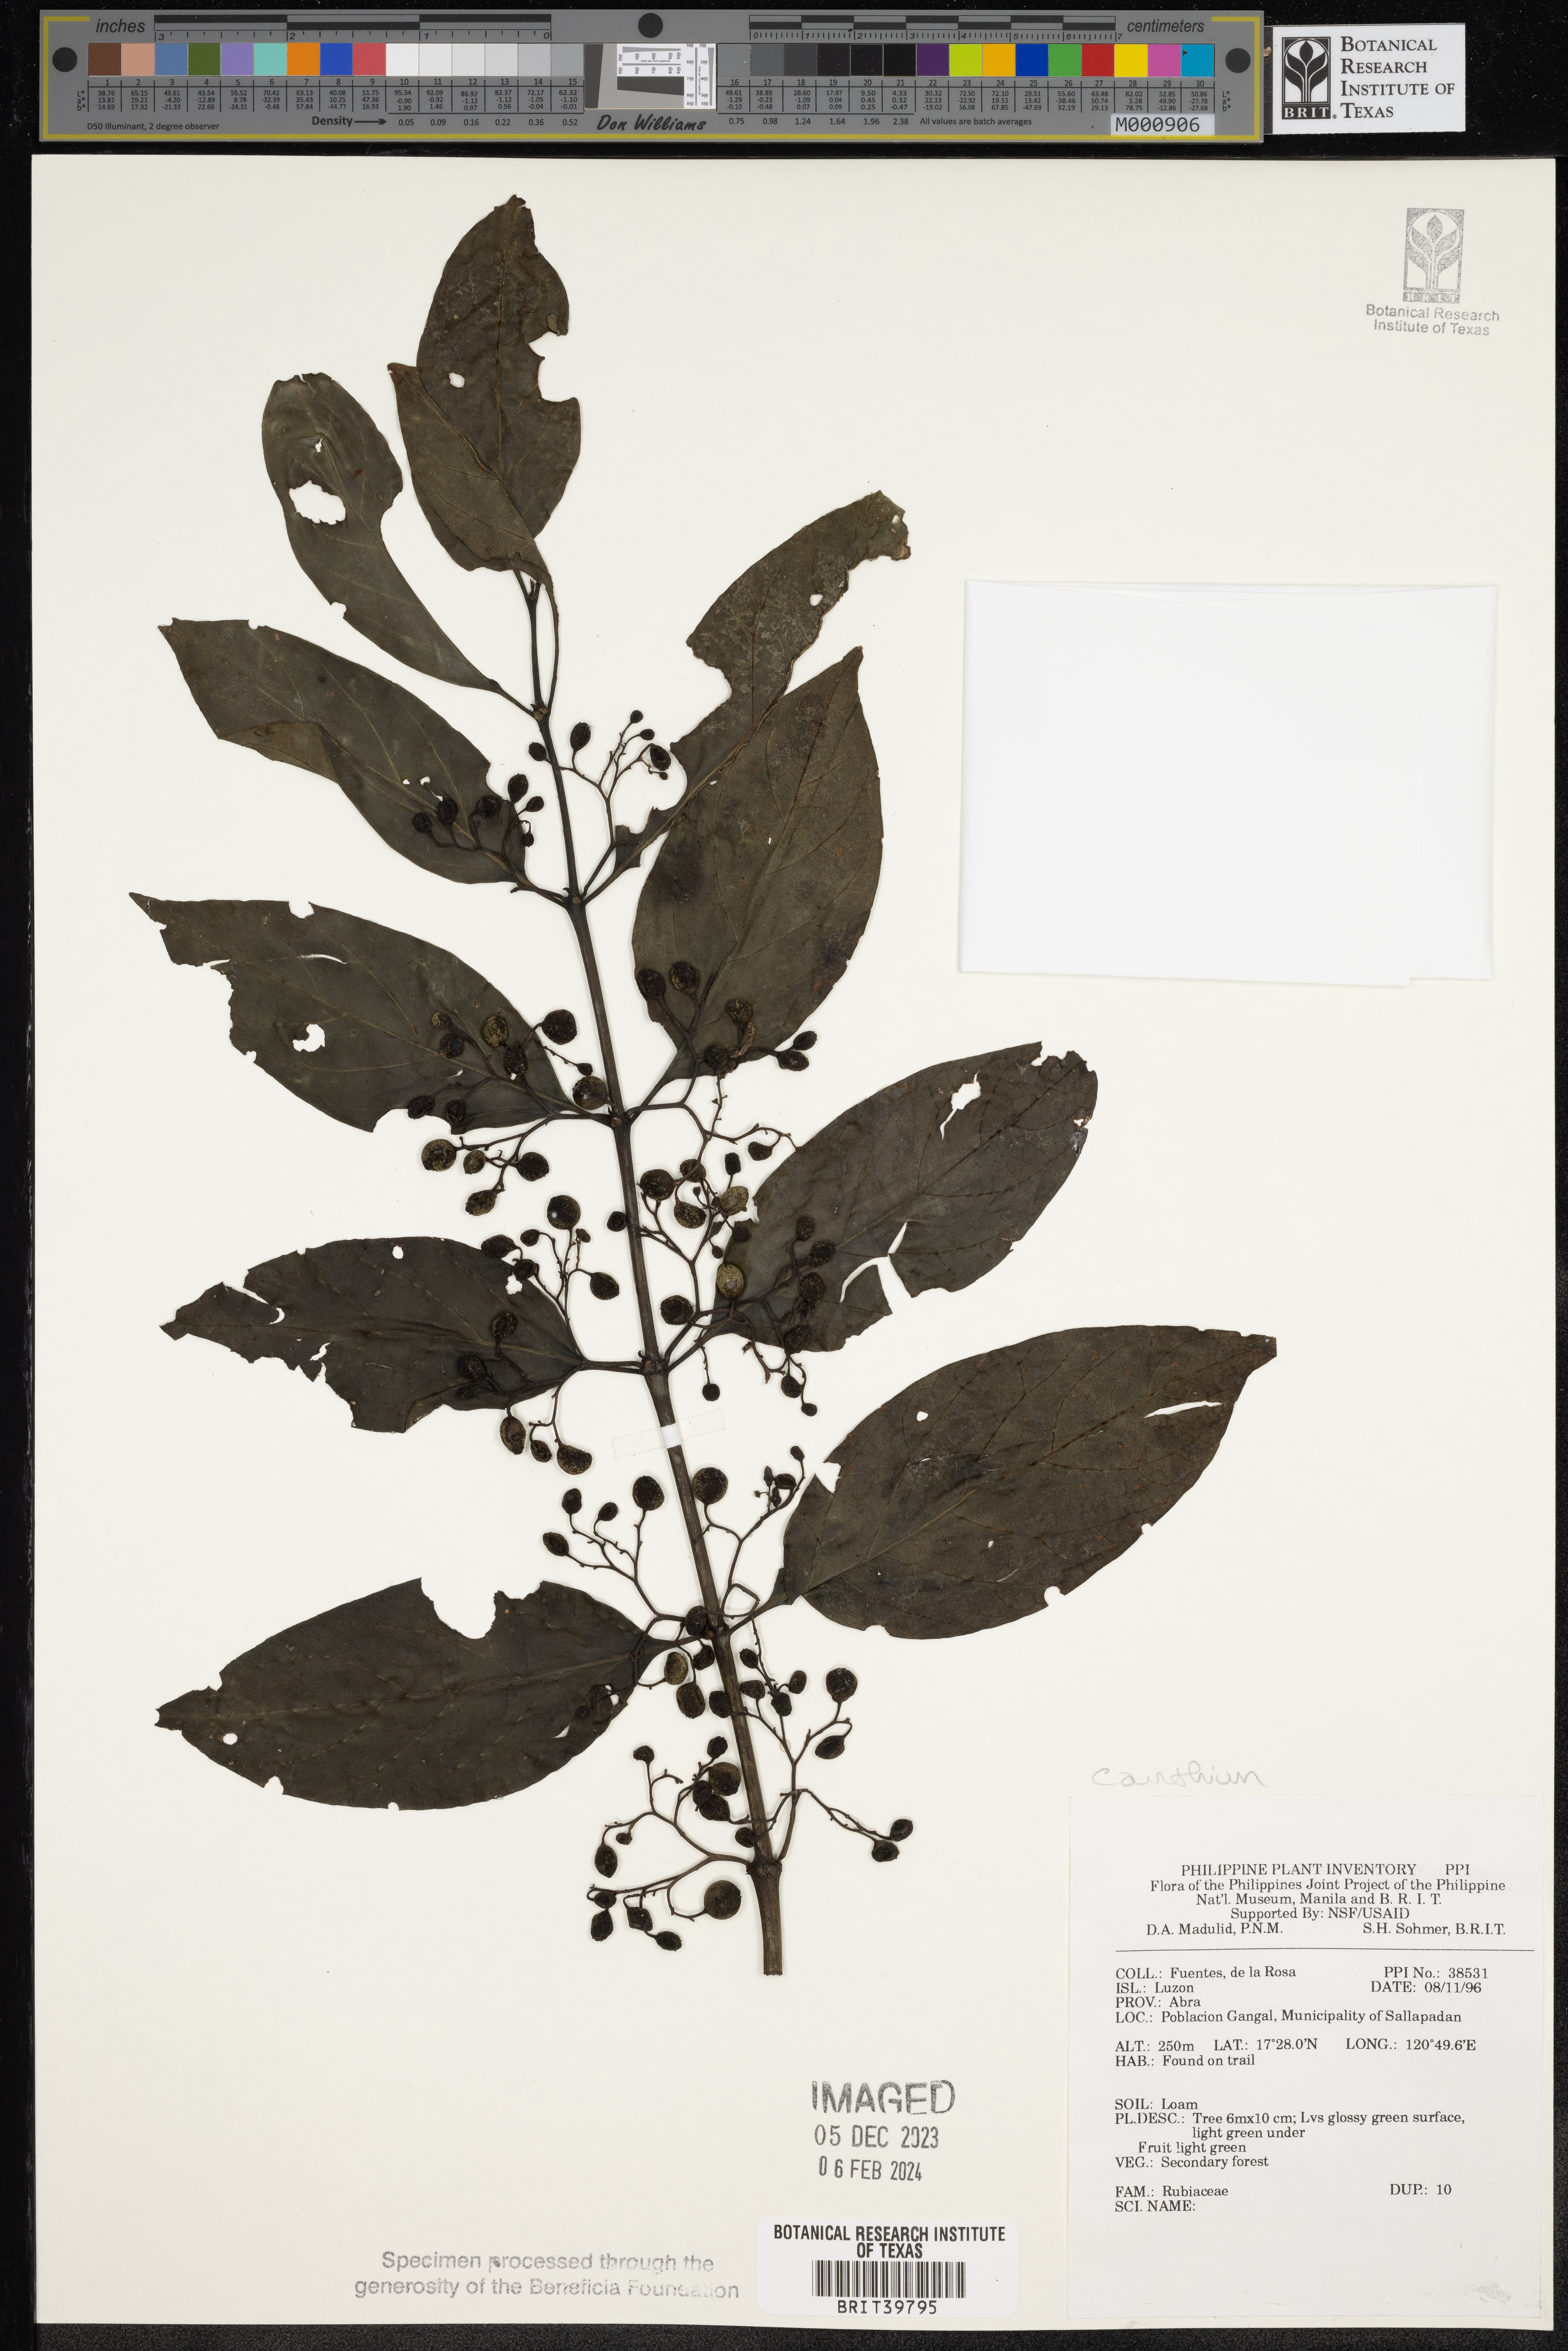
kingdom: Plantae
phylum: Tracheophyta
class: Magnoliopsida
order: Gentianales
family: Rubiaceae
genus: Canthium
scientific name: Canthium
